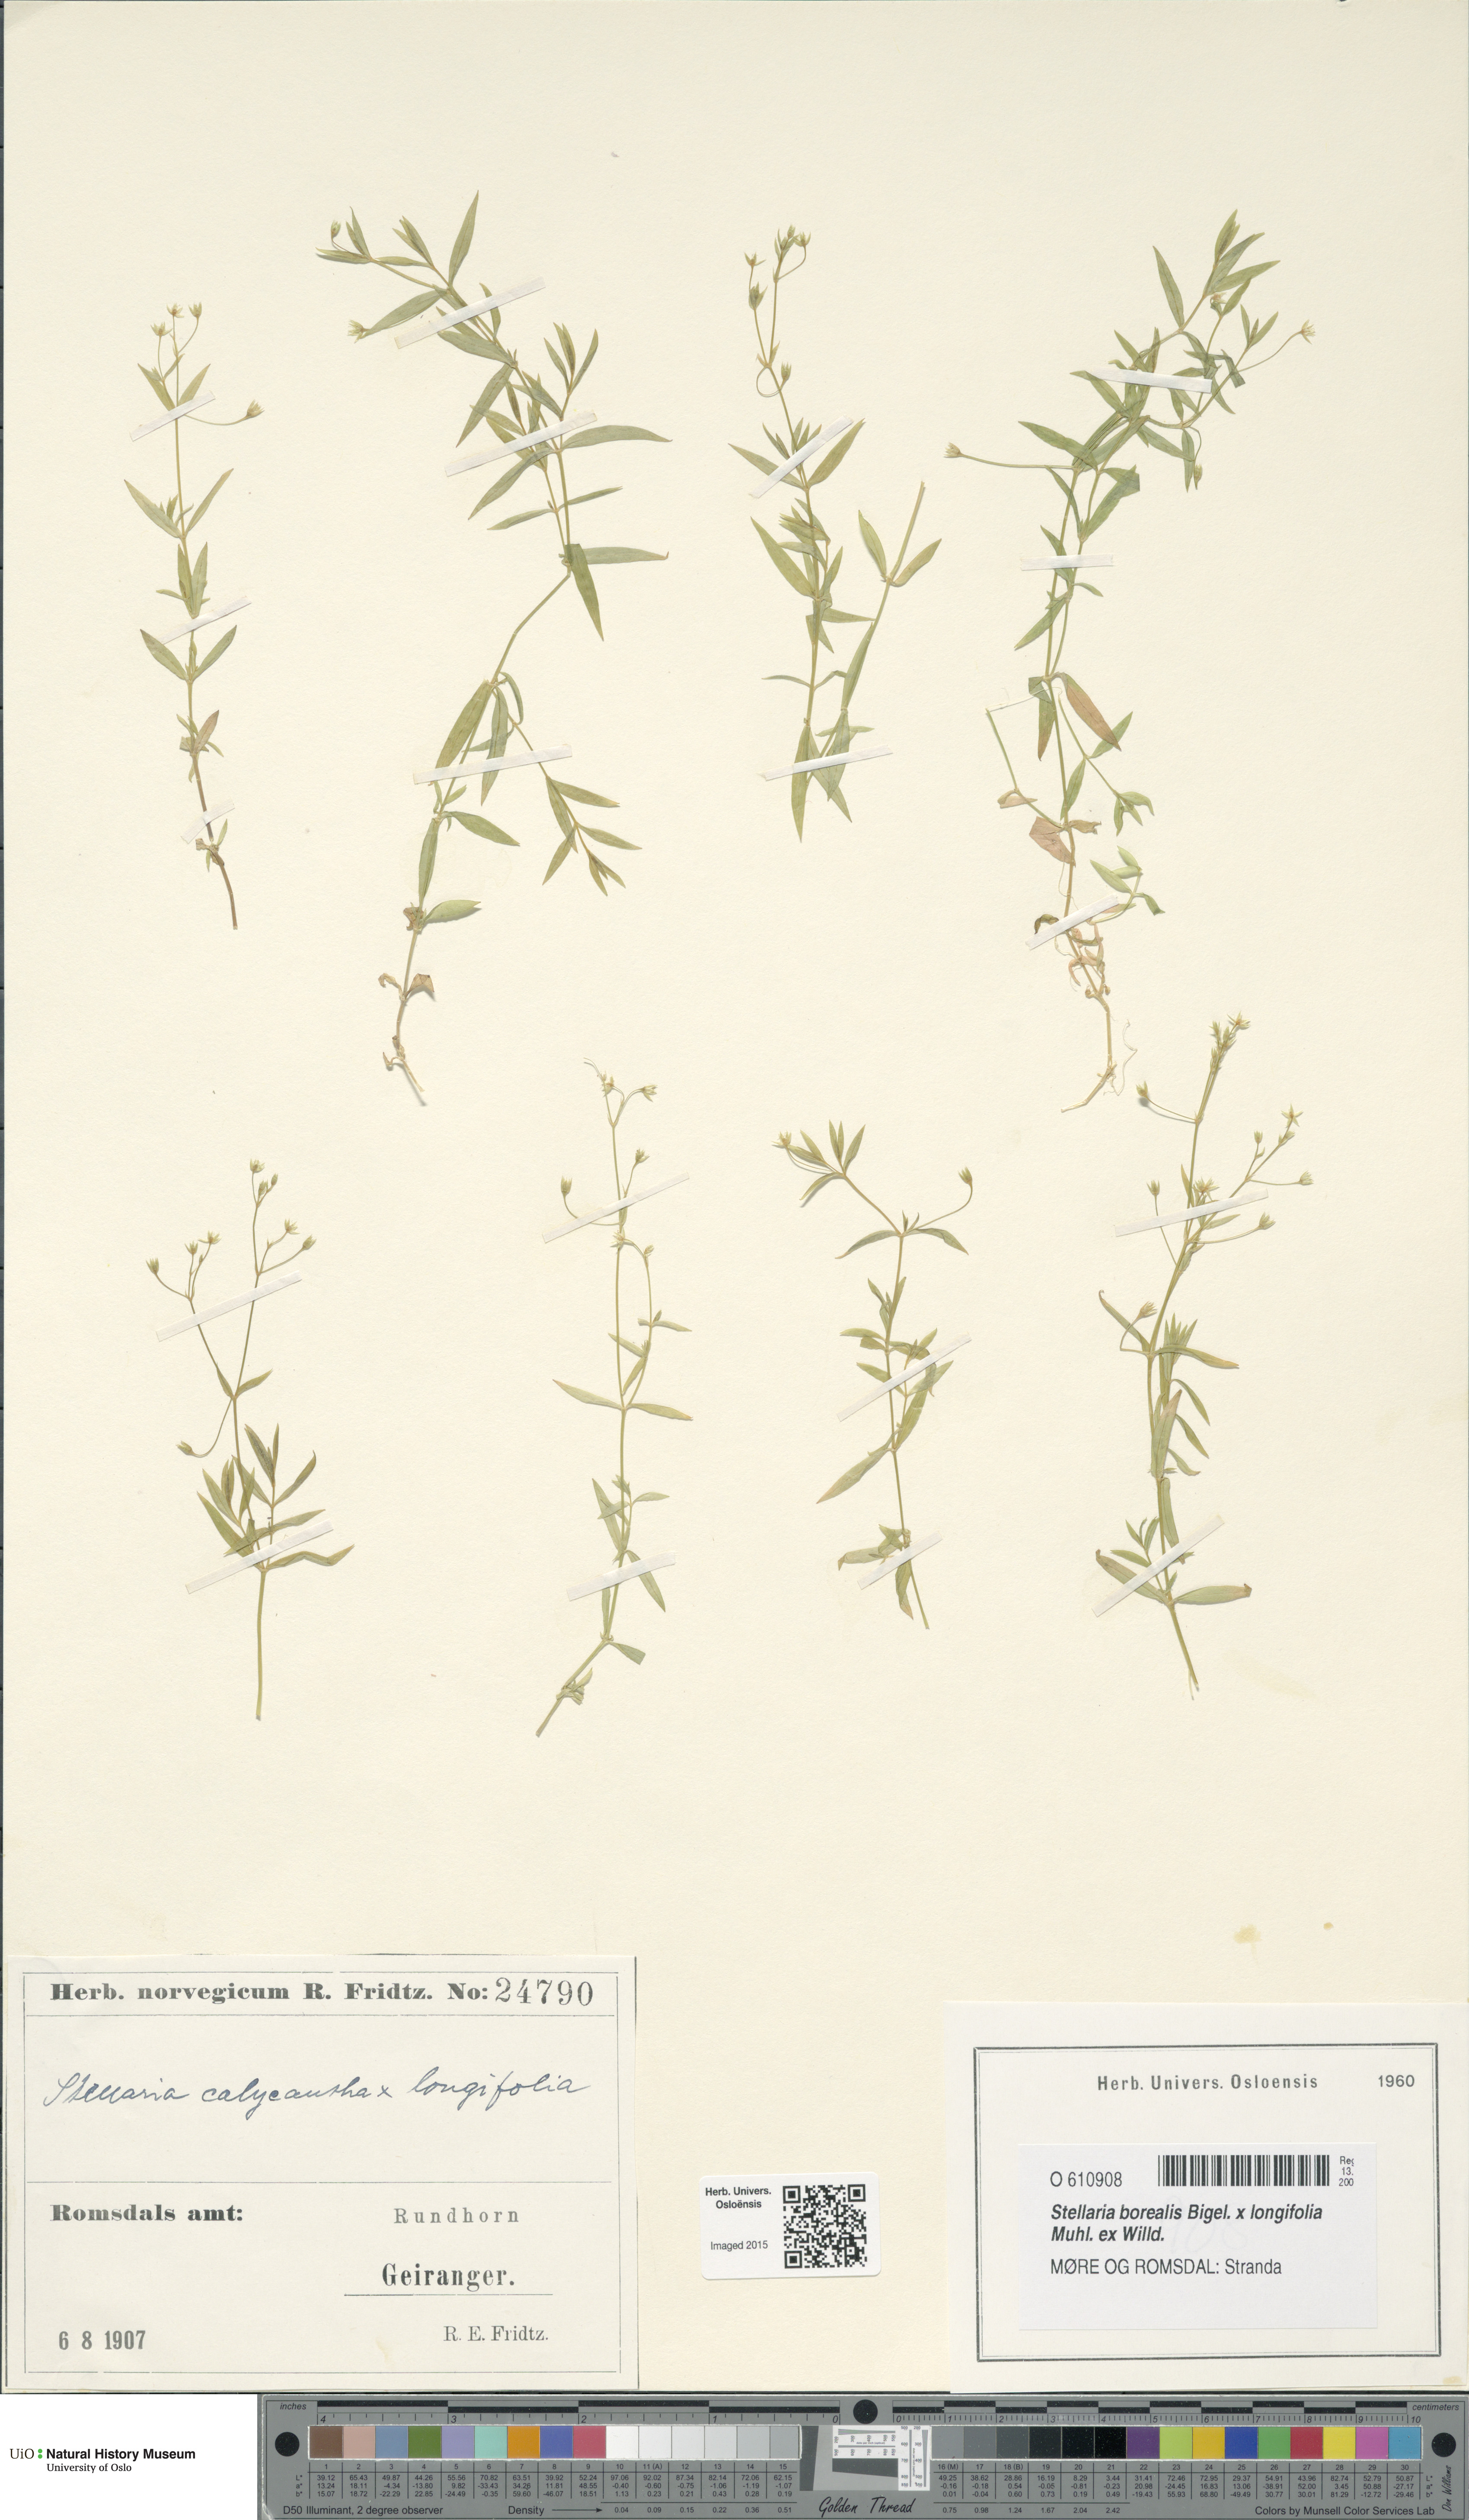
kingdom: Plantae
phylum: Tracheophyta
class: Magnoliopsida
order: Caryophyllales
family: Caryophyllaceae
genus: Stellaria
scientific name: Stellaria
